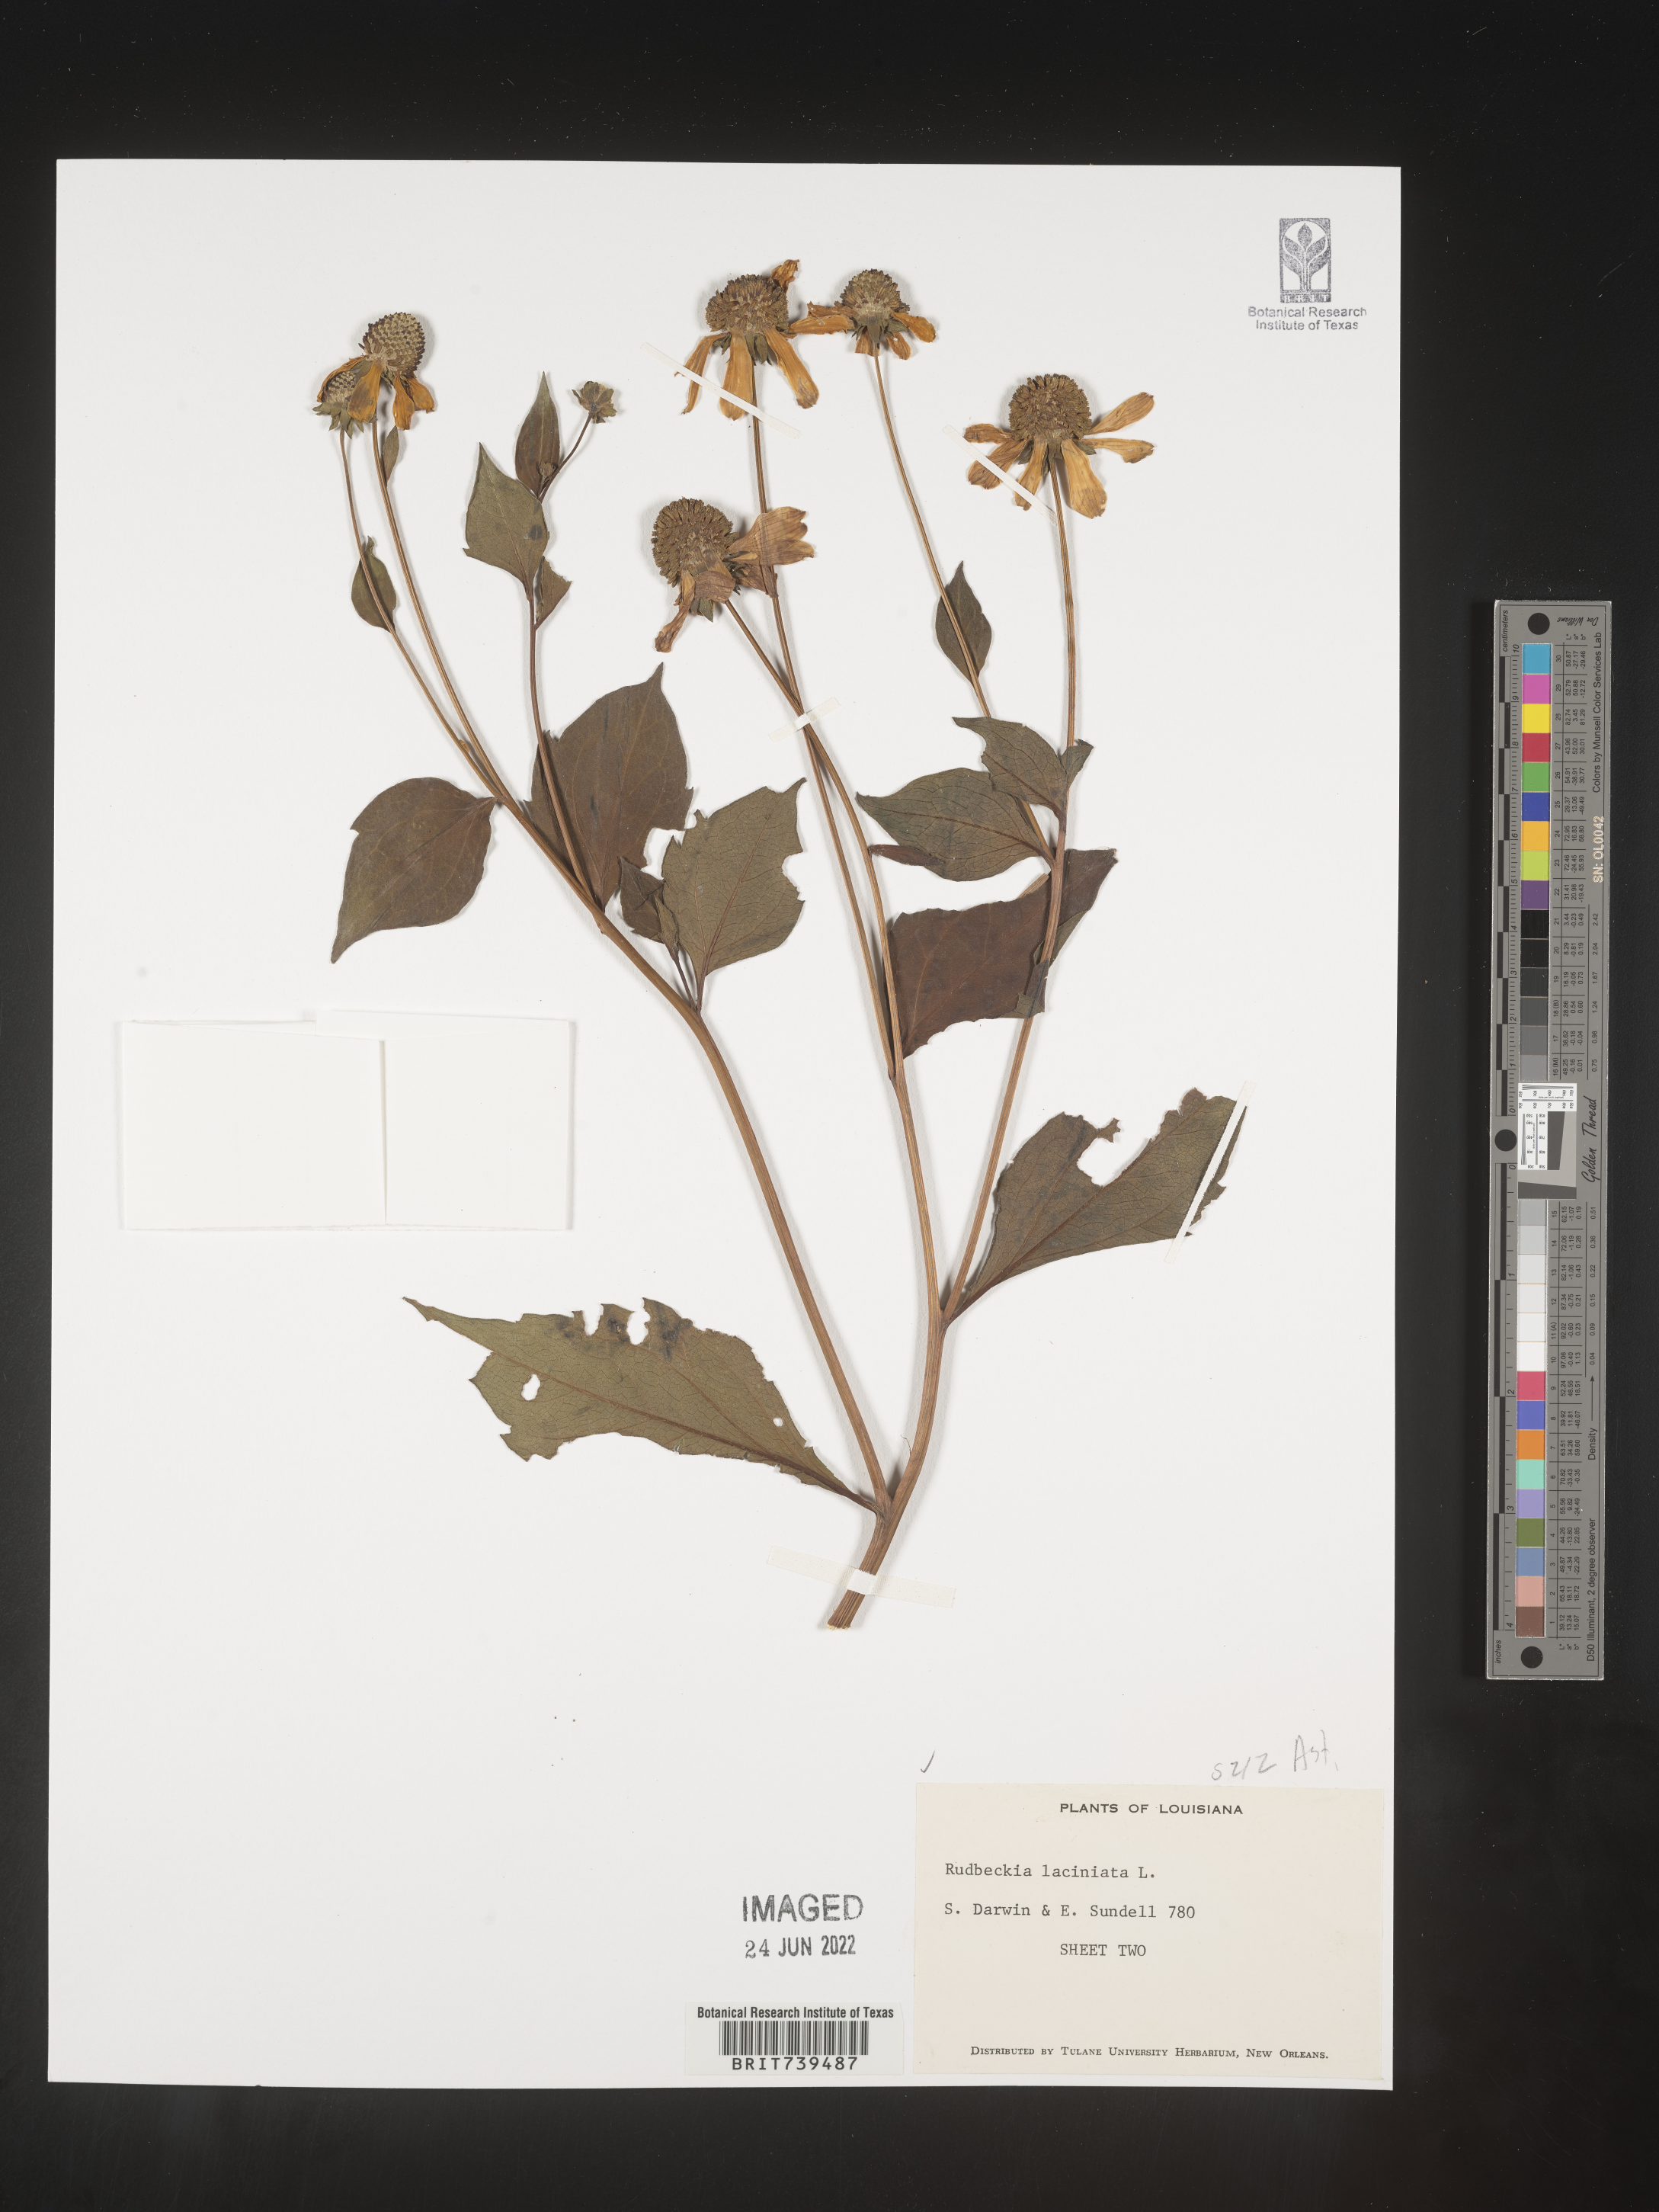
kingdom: Plantae
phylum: Tracheophyta
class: Magnoliopsida
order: Asterales
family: Asteraceae
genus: Rudbeckia
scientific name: Rudbeckia laciniata
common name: Coneflower
